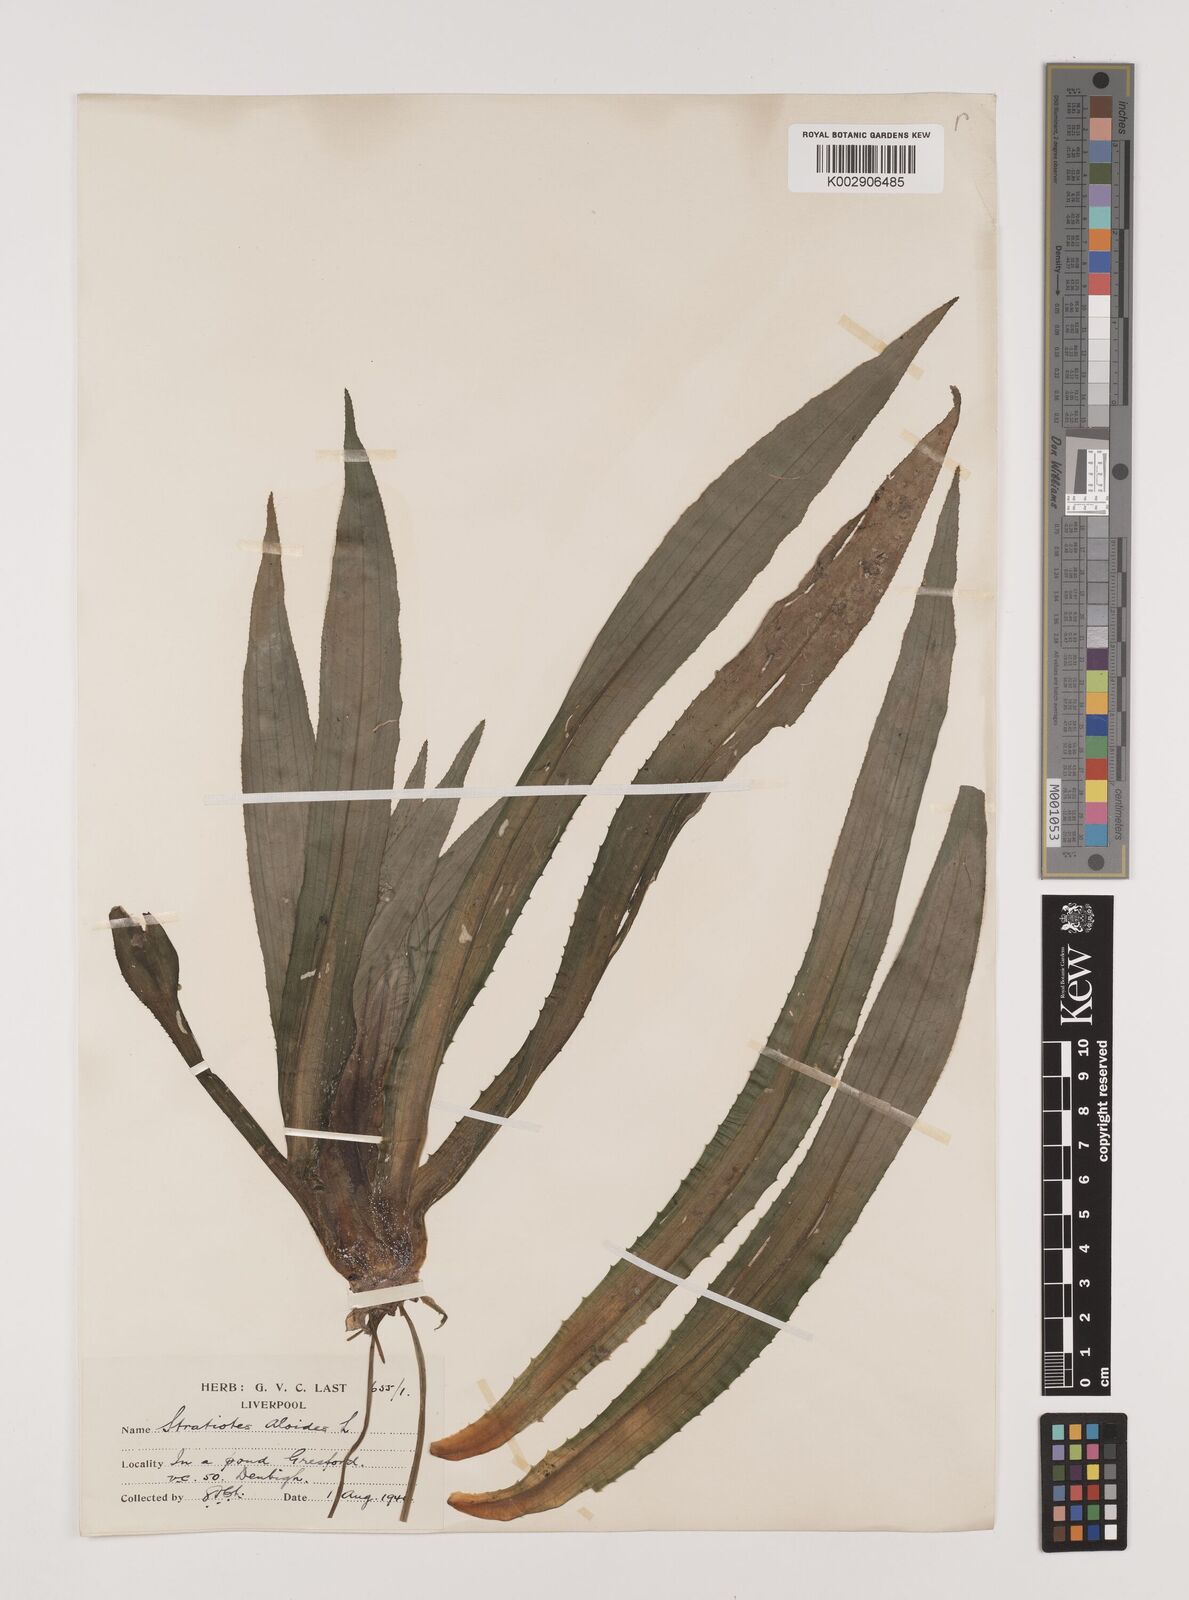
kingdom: Plantae
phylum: Tracheophyta
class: Liliopsida
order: Alismatales
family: Hydrocharitaceae
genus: Stratiotes
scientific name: Stratiotes aloides
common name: Water-soldier
